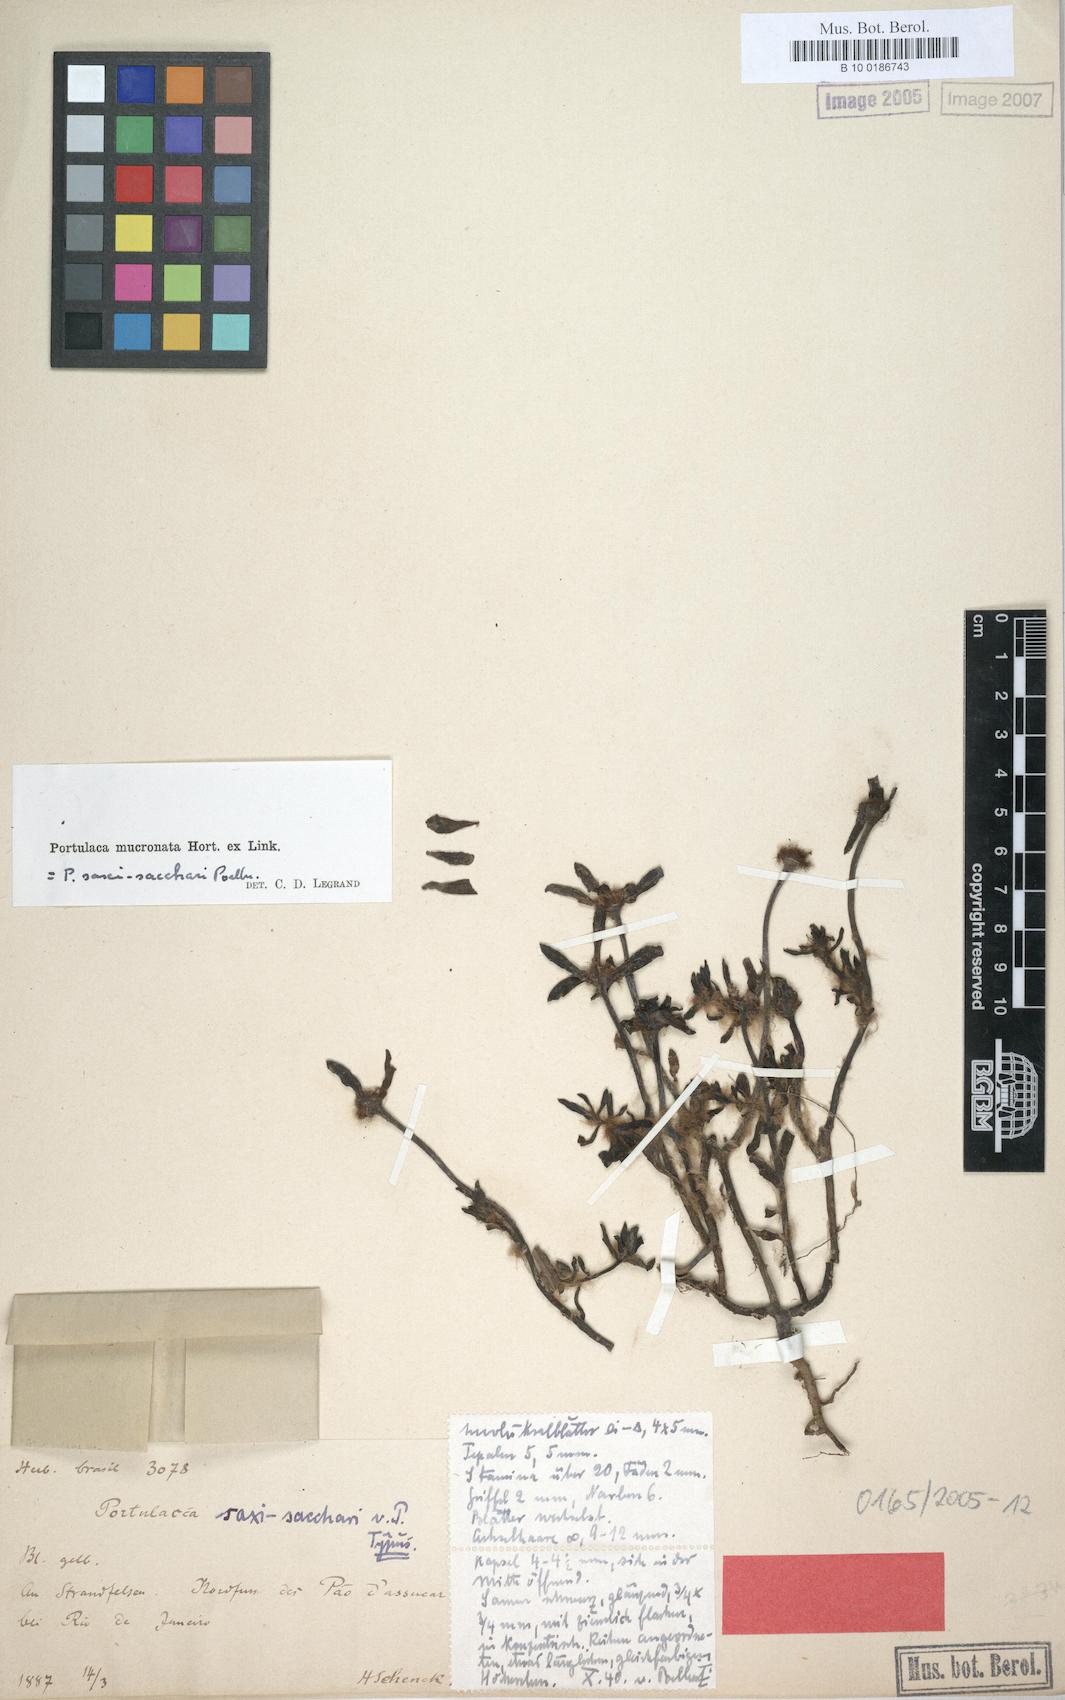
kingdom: Plantae
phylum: Tracheophyta
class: Magnoliopsida
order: Caryophyllales
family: Portulacaceae
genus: Portulaca
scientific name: Portulaca mucronata
